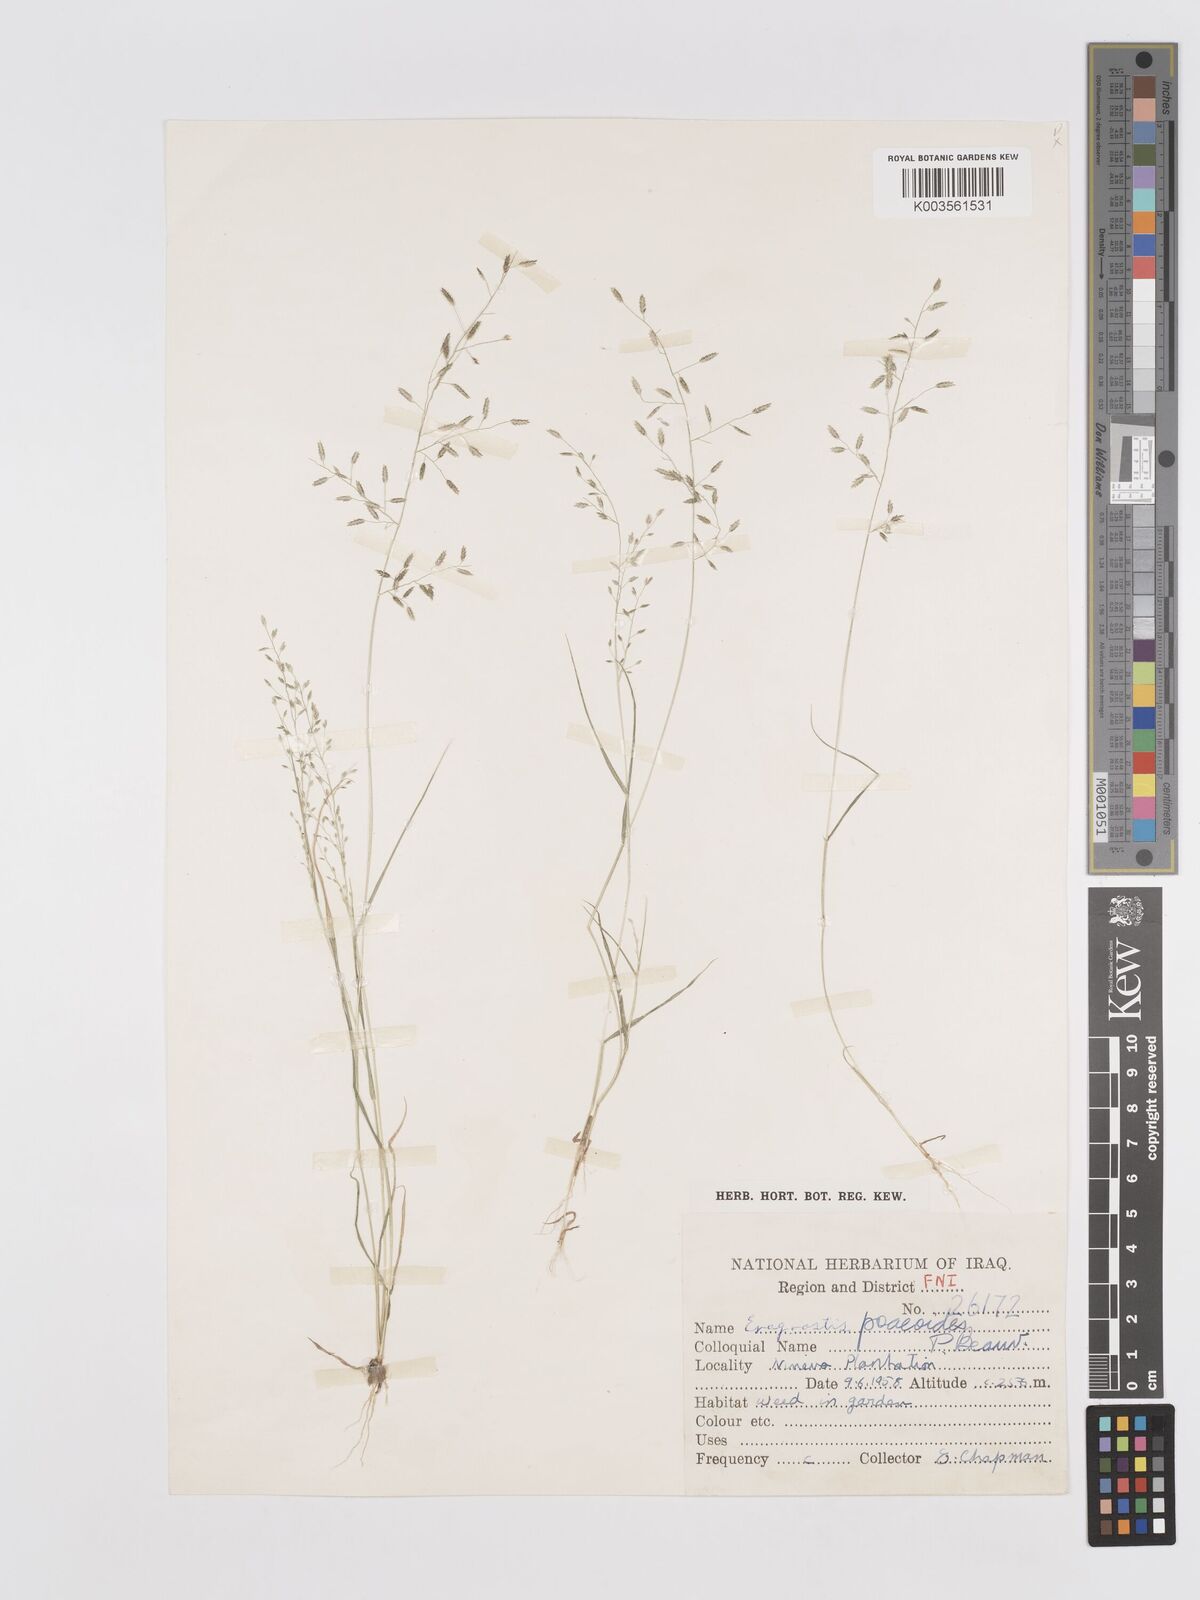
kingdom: Plantae
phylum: Tracheophyta
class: Liliopsida
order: Poales
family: Poaceae
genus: Eragrostis
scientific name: Eragrostis minor
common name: Small love-grass
